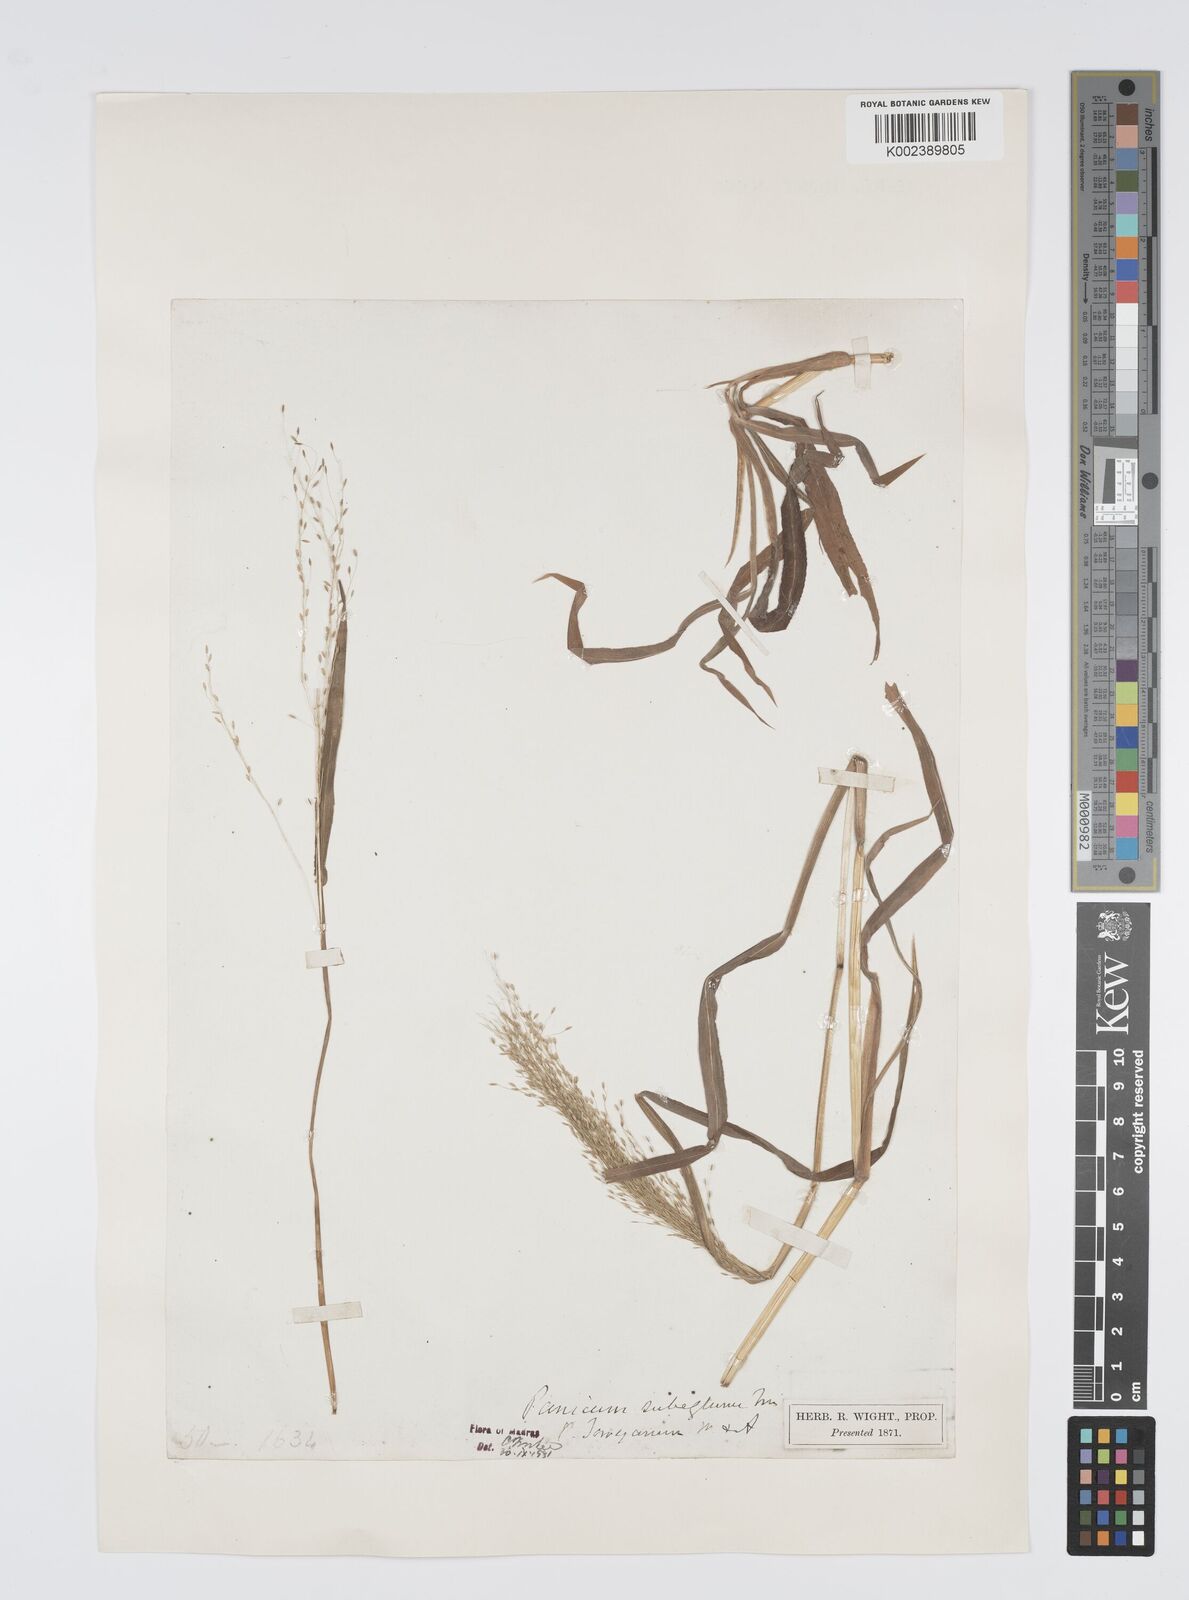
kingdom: Plantae
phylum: Tracheophyta
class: Liliopsida
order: Poales
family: Poaceae
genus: Digitaria
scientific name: Digitaria tomentosa
